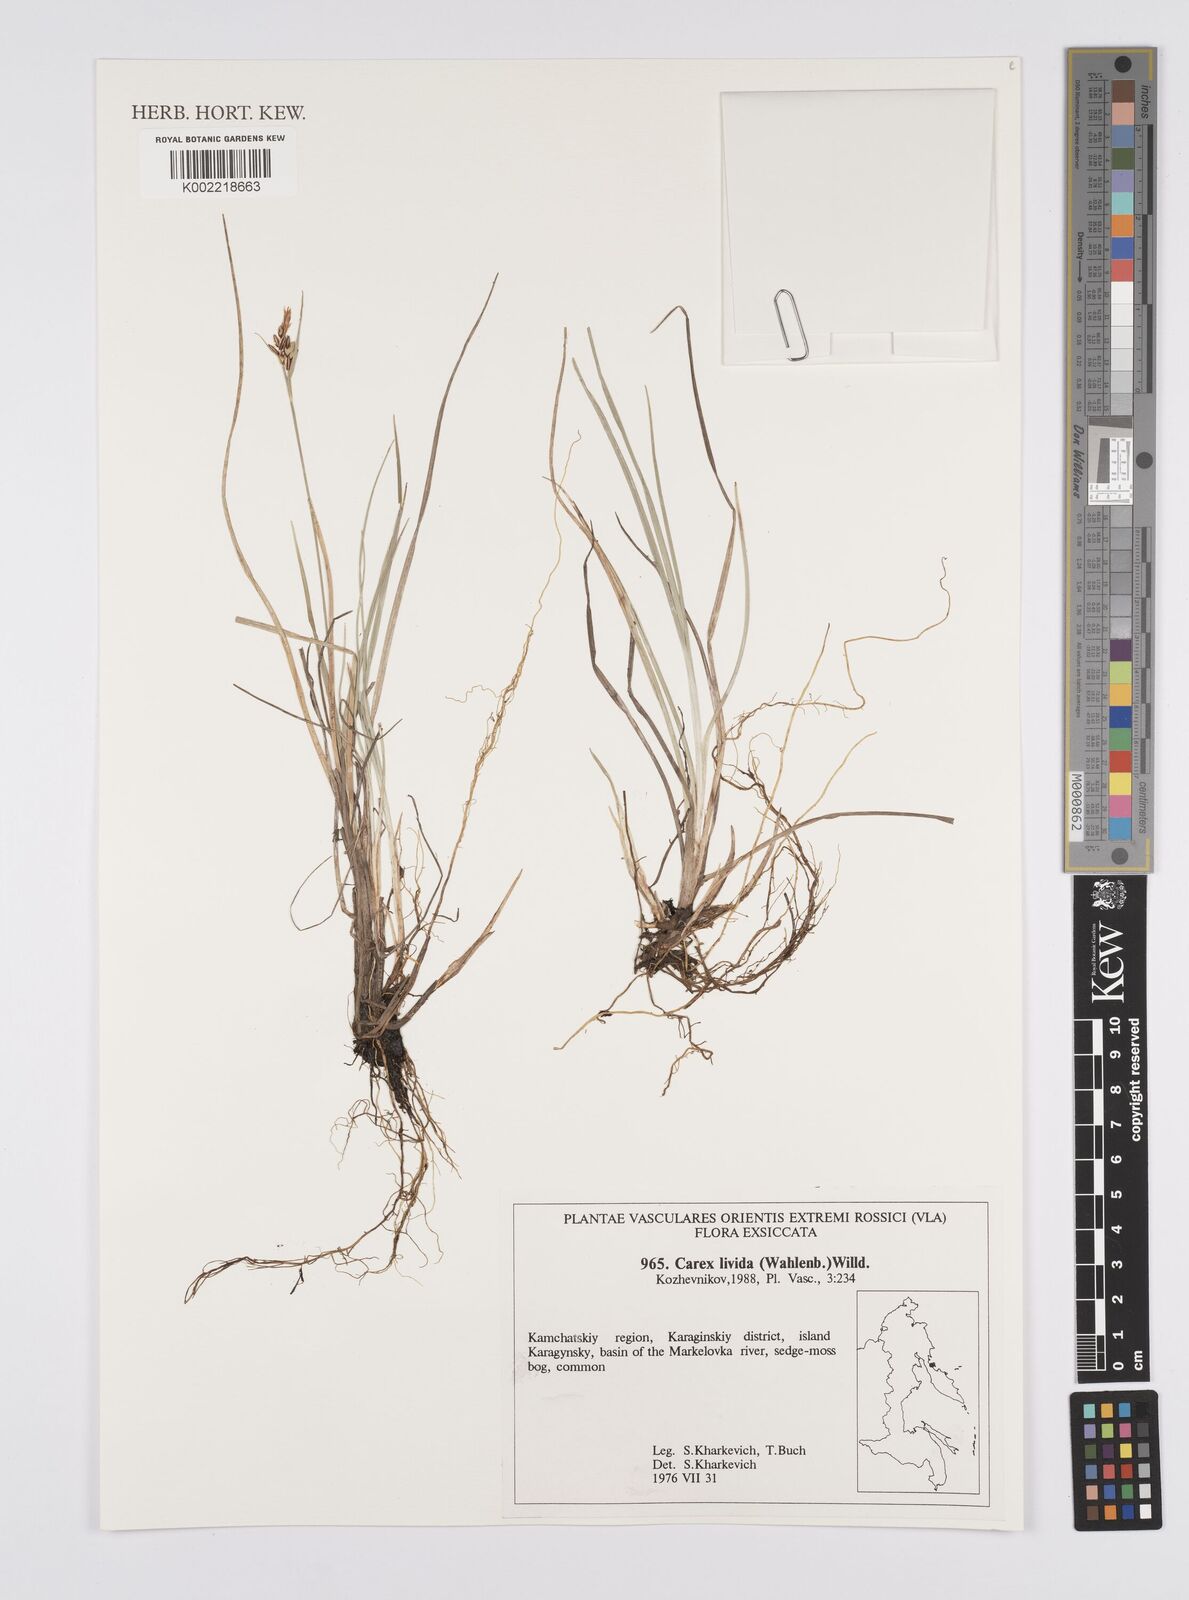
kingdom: Plantae
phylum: Tracheophyta
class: Liliopsida
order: Poales
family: Cyperaceae
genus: Carex
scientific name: Carex panicea
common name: Carnation sedge
